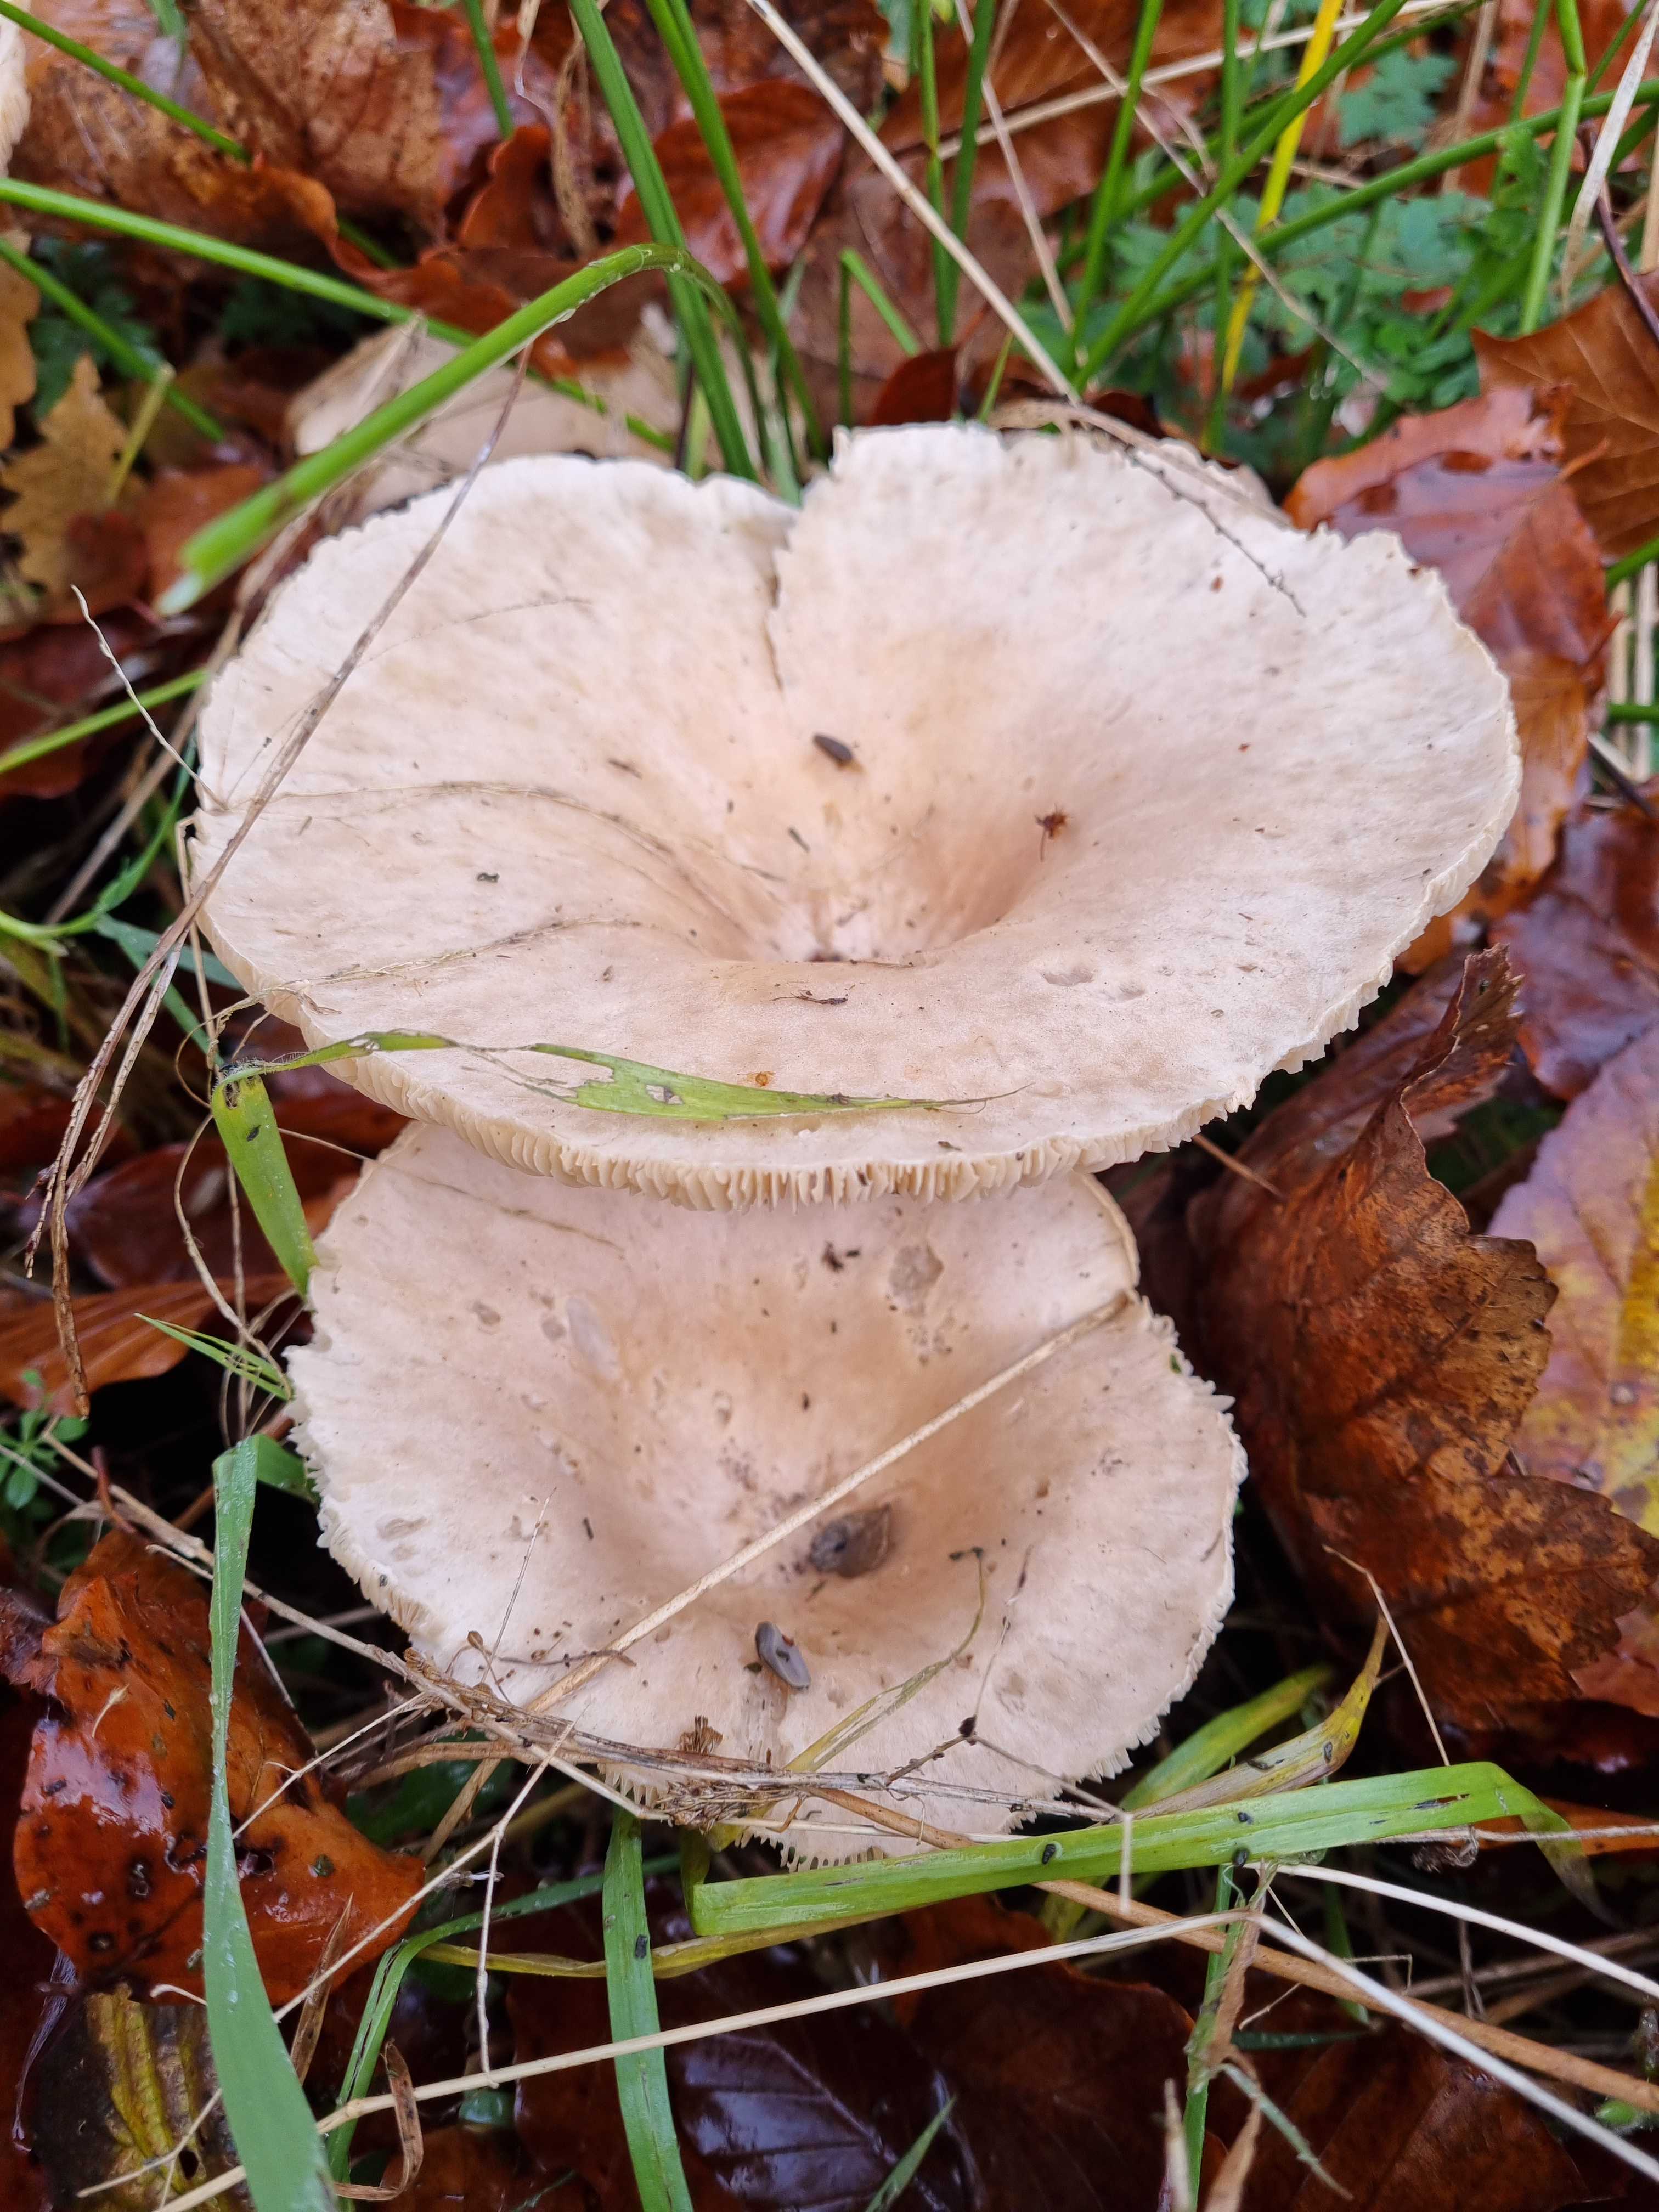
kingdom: Fungi
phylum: Basidiomycota
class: Agaricomycetes
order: Agaricales
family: Tricholomataceae
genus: Infundibulicybe
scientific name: Infundibulicybe geotropa
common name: stor tragthat
